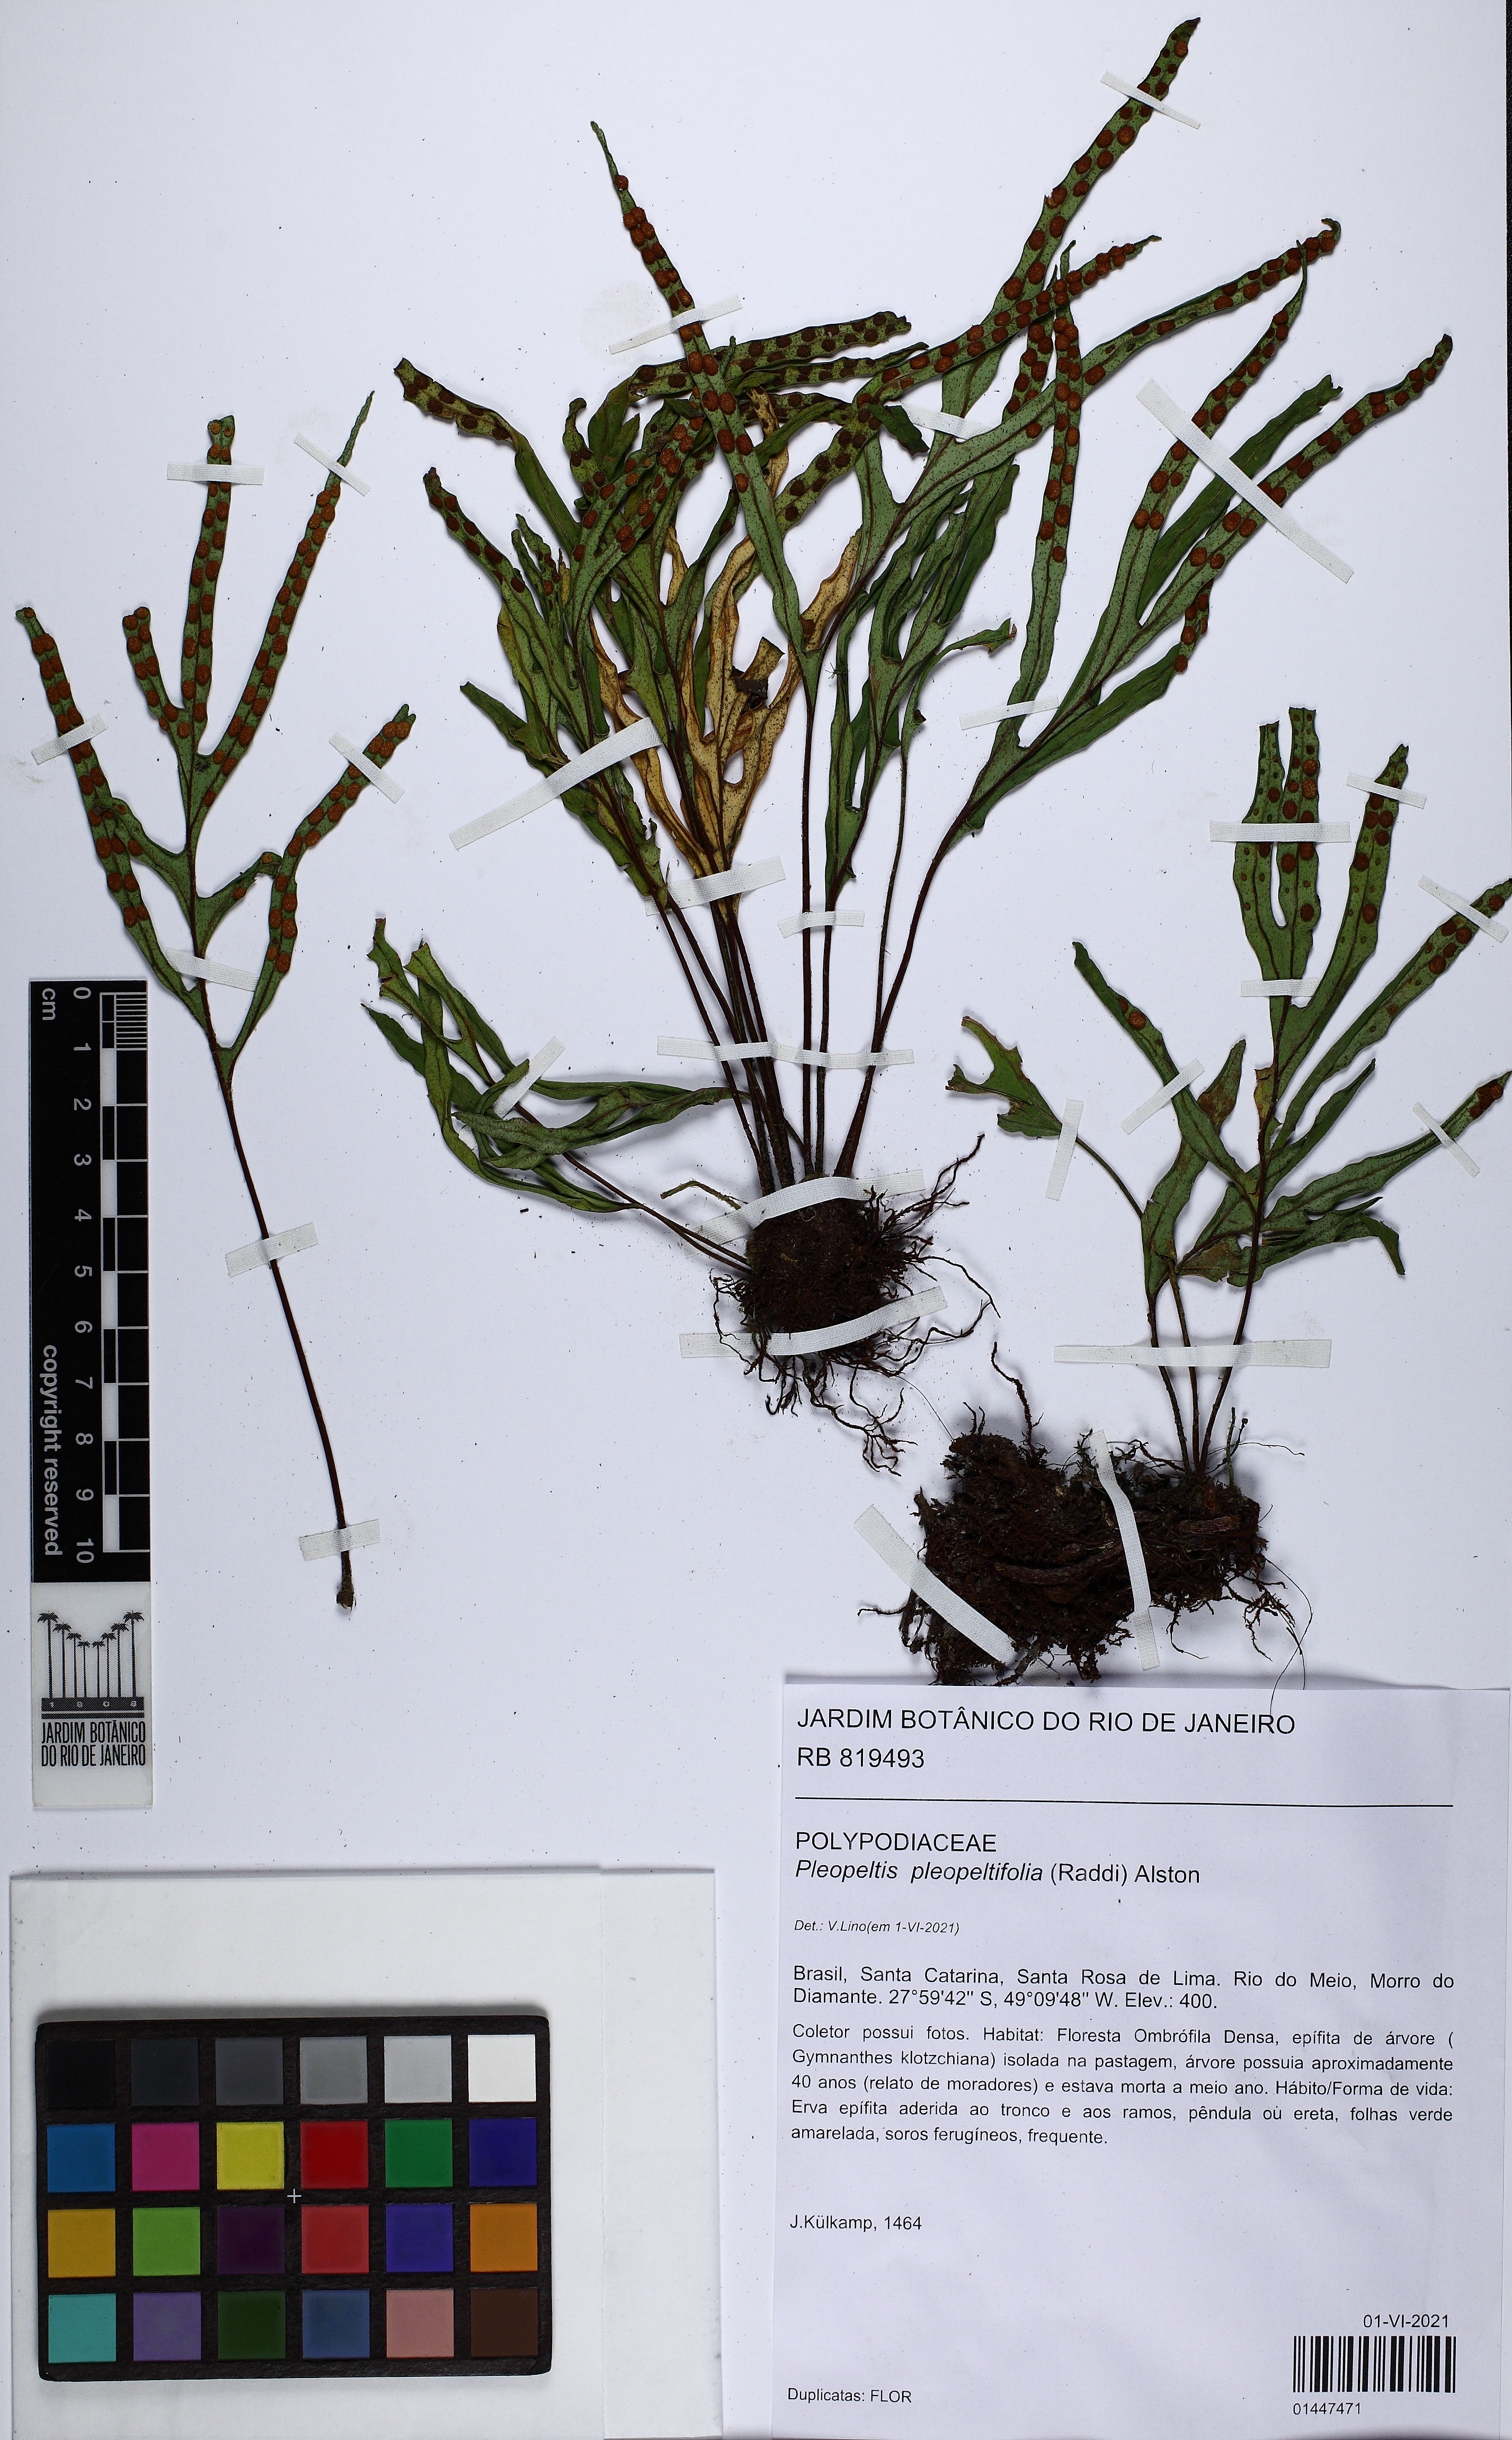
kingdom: Plantae
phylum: Tracheophyta
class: Polypodiopsida
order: Polypodiales
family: Polypodiaceae
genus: Pleopeltis
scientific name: Pleopeltis pleopeltifolia
